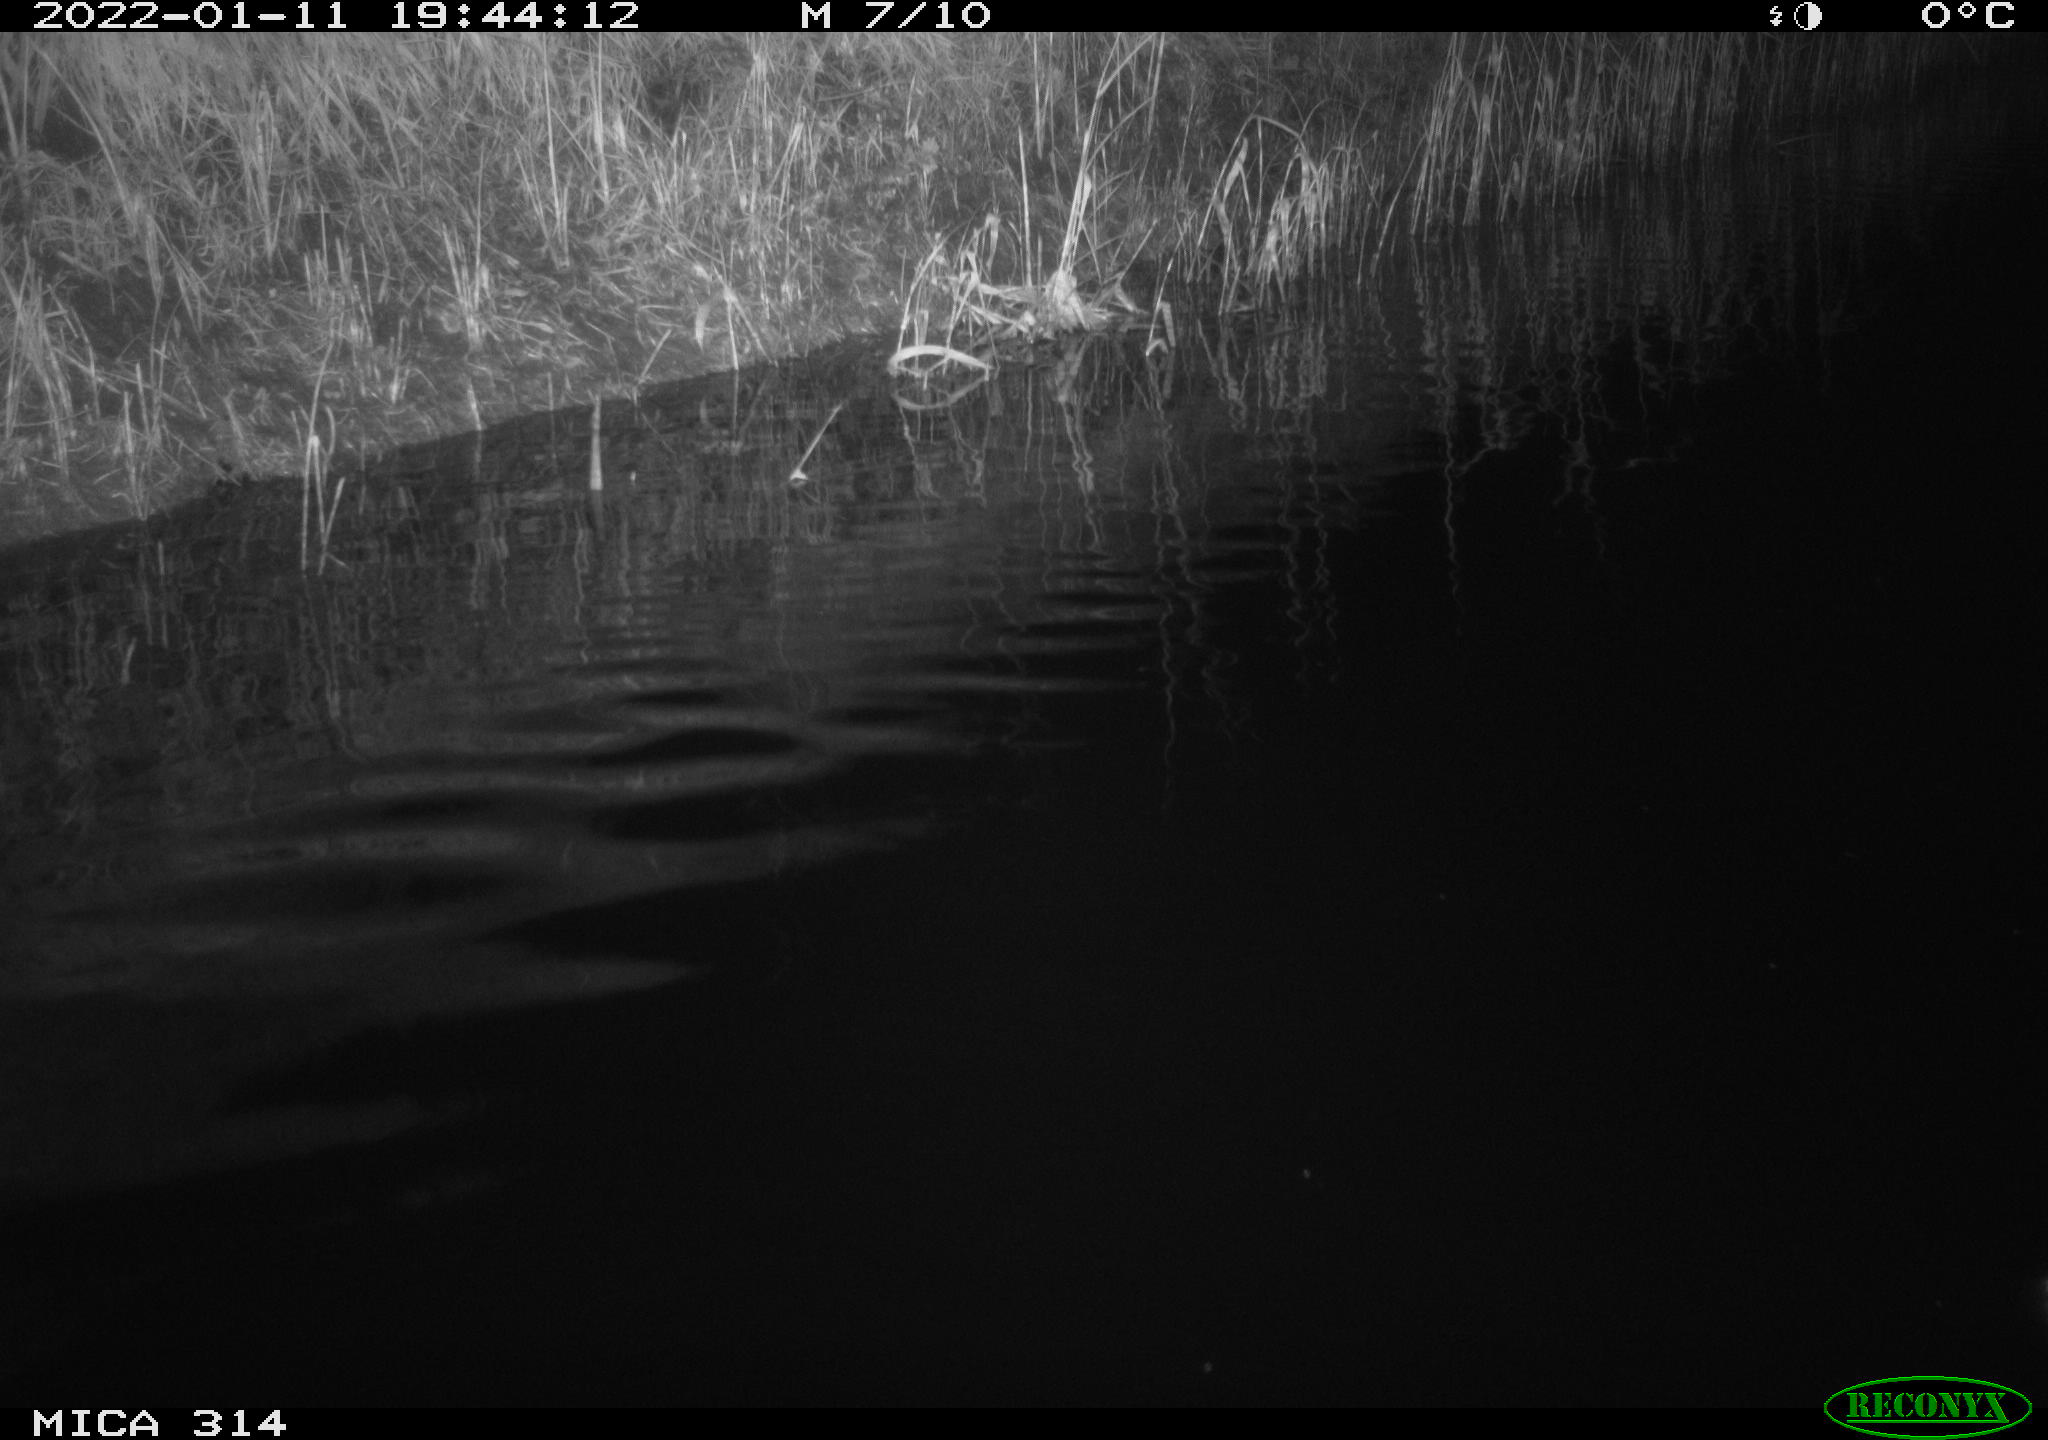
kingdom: Animalia
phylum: Chordata
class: Mammalia
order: Rodentia
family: Muridae
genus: Rattus
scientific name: Rattus norvegicus
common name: Brown rat
